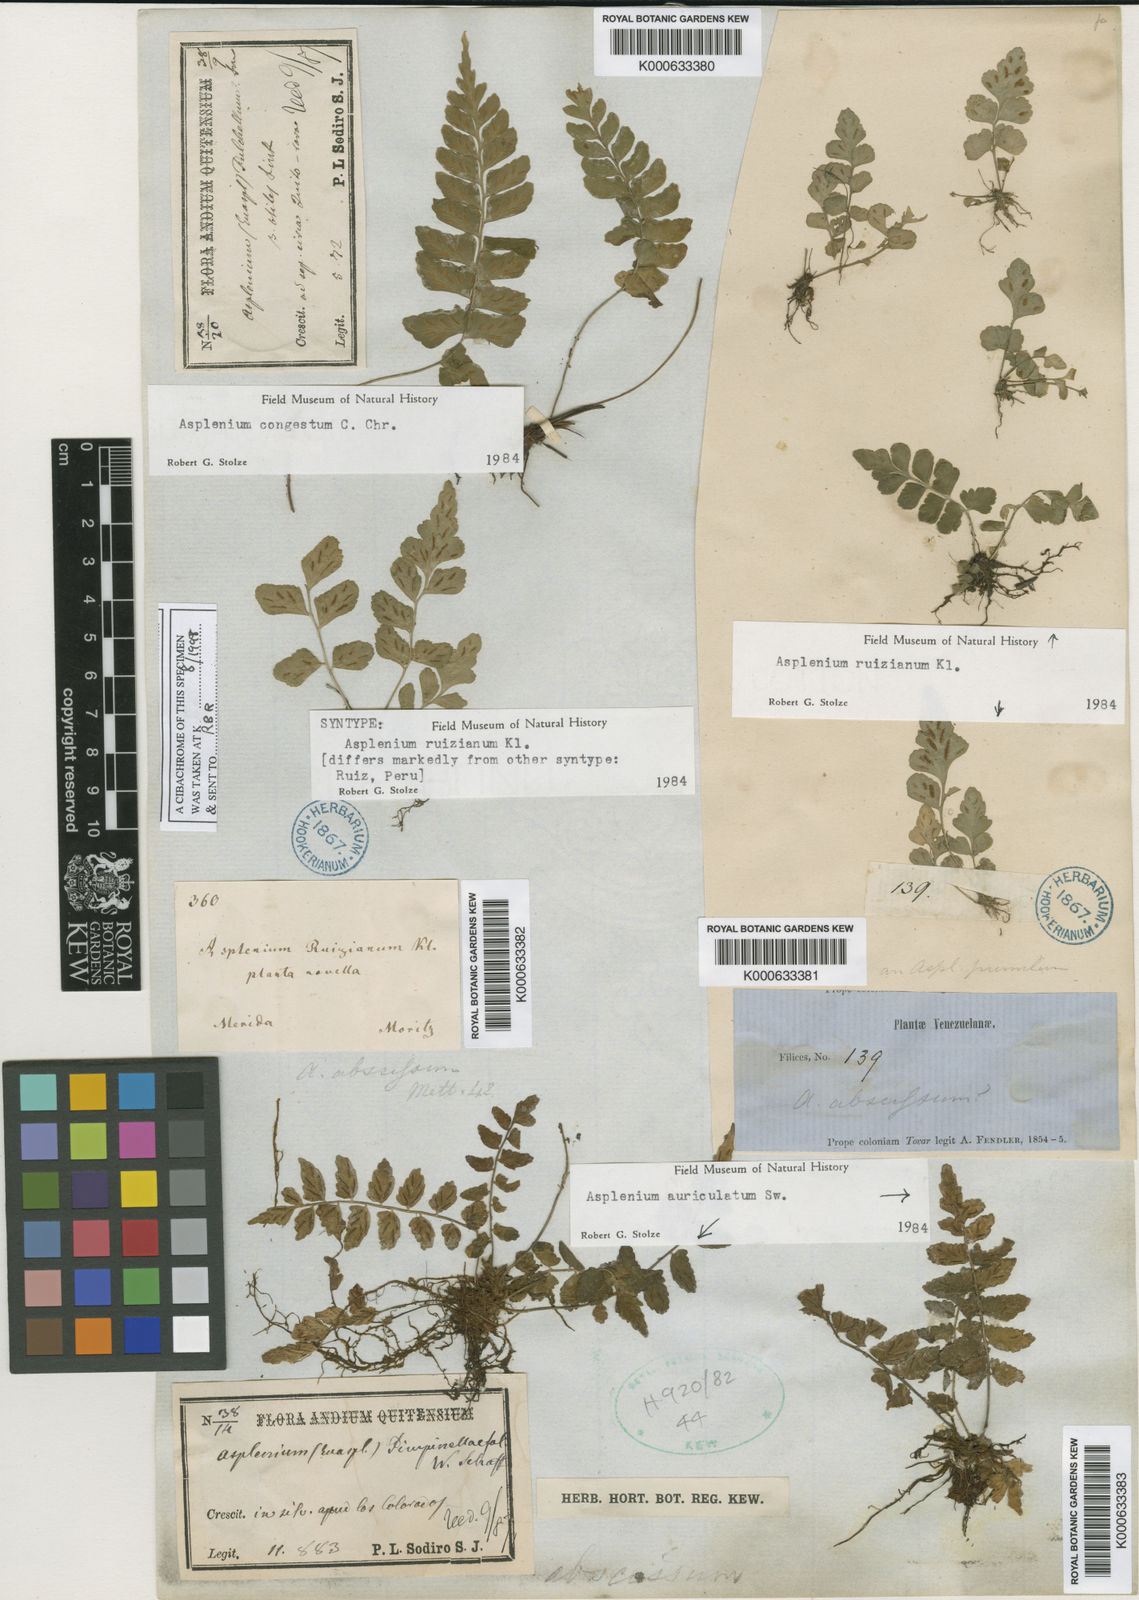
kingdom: Plantae
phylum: Tracheophyta
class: Polypodiopsida
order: Polypodiales
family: Aspleniaceae
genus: Asplenium
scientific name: Asplenium ruizianum
